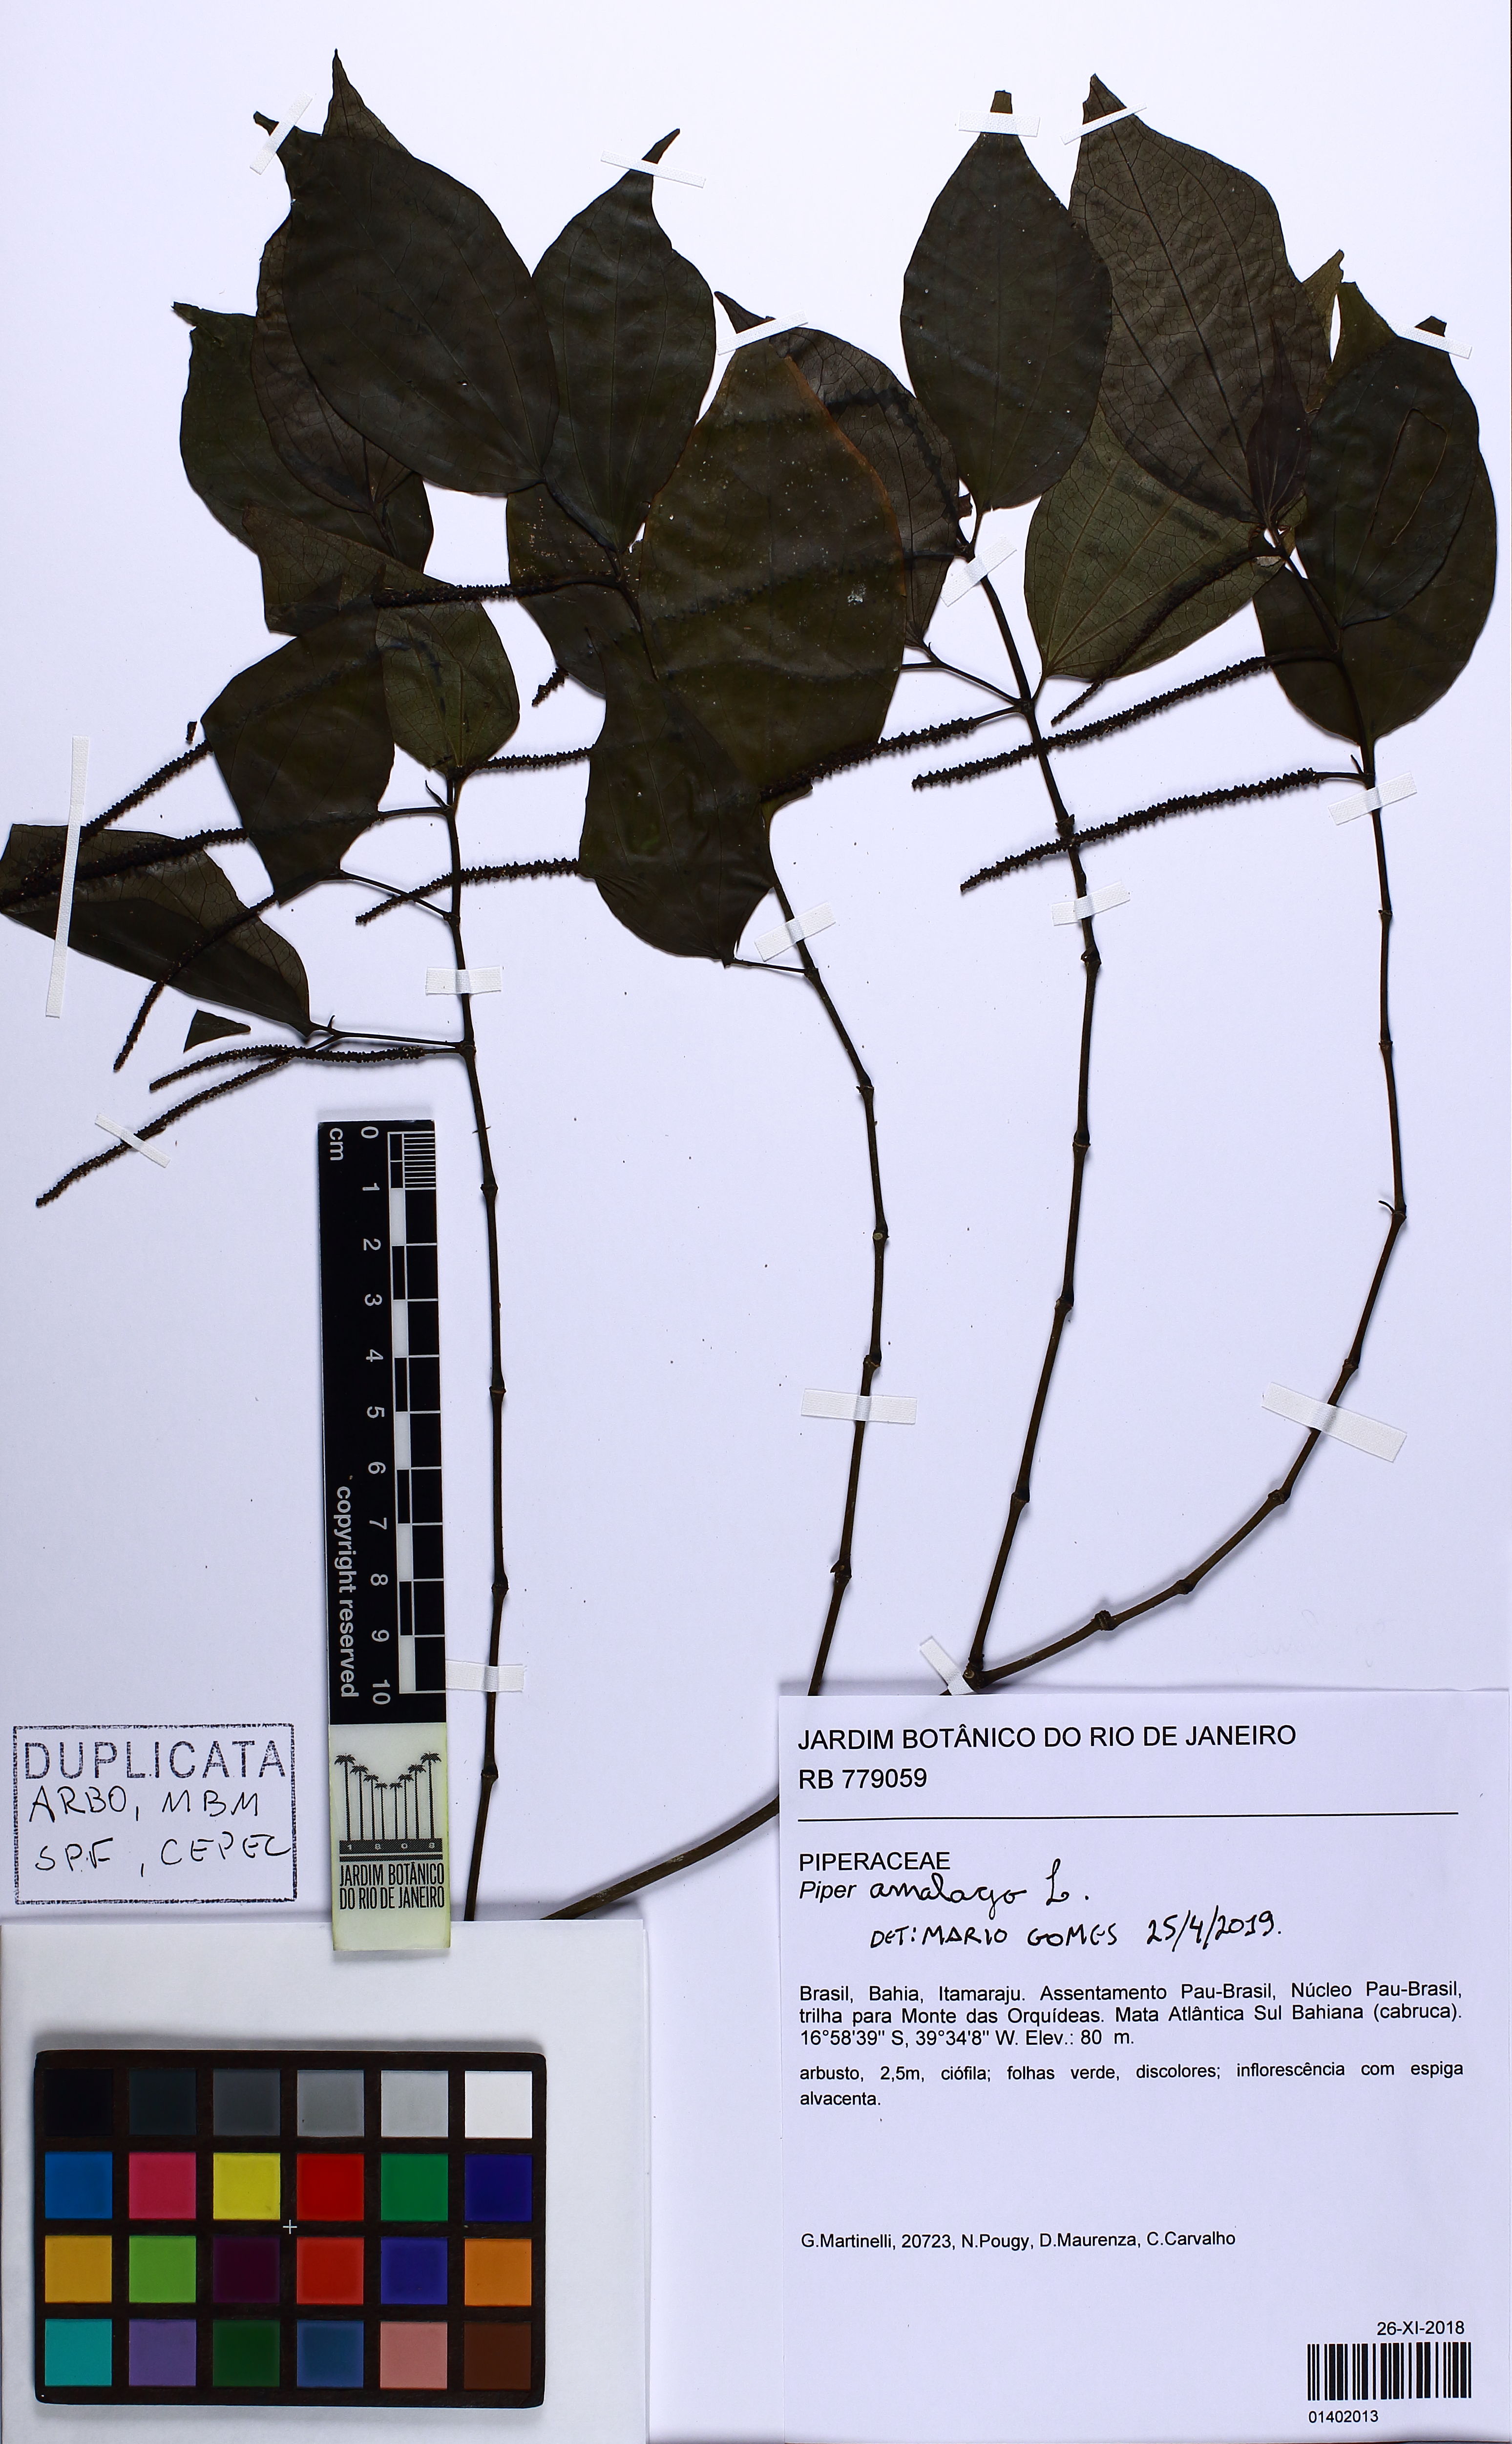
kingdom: Plantae
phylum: Tracheophyta
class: Magnoliopsida
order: Piperales
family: Piperaceae
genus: Piper
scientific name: Piper amalago
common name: Pepper-elder
